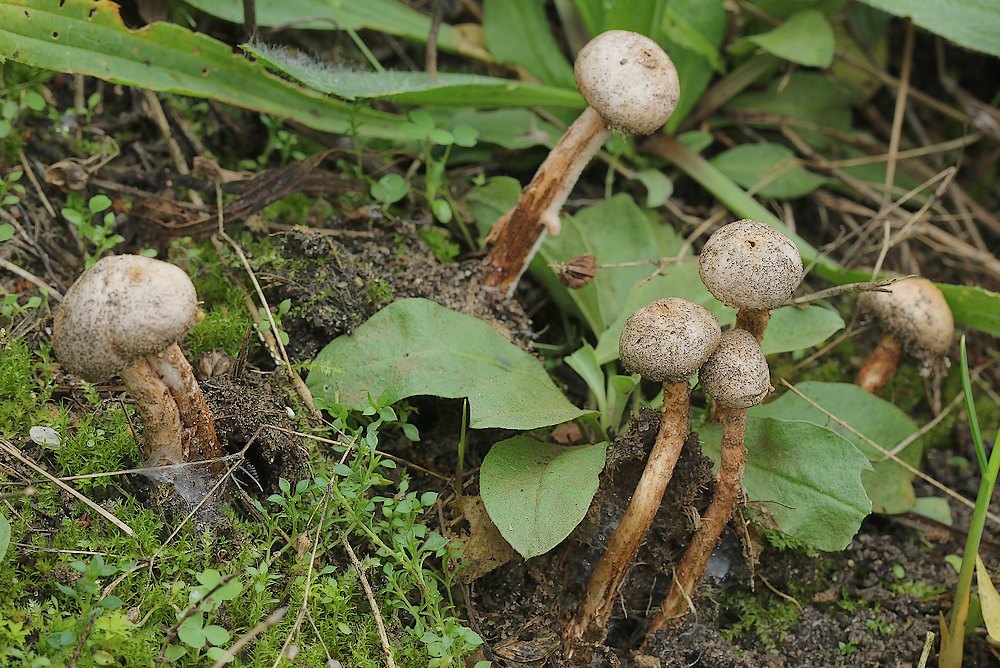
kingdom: Fungi
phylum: Basidiomycota
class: Agaricomycetes
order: Agaricales
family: Agaricaceae
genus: Tulostoma
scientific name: Tulostoma fimbriatum
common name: frynset stilkbovist
